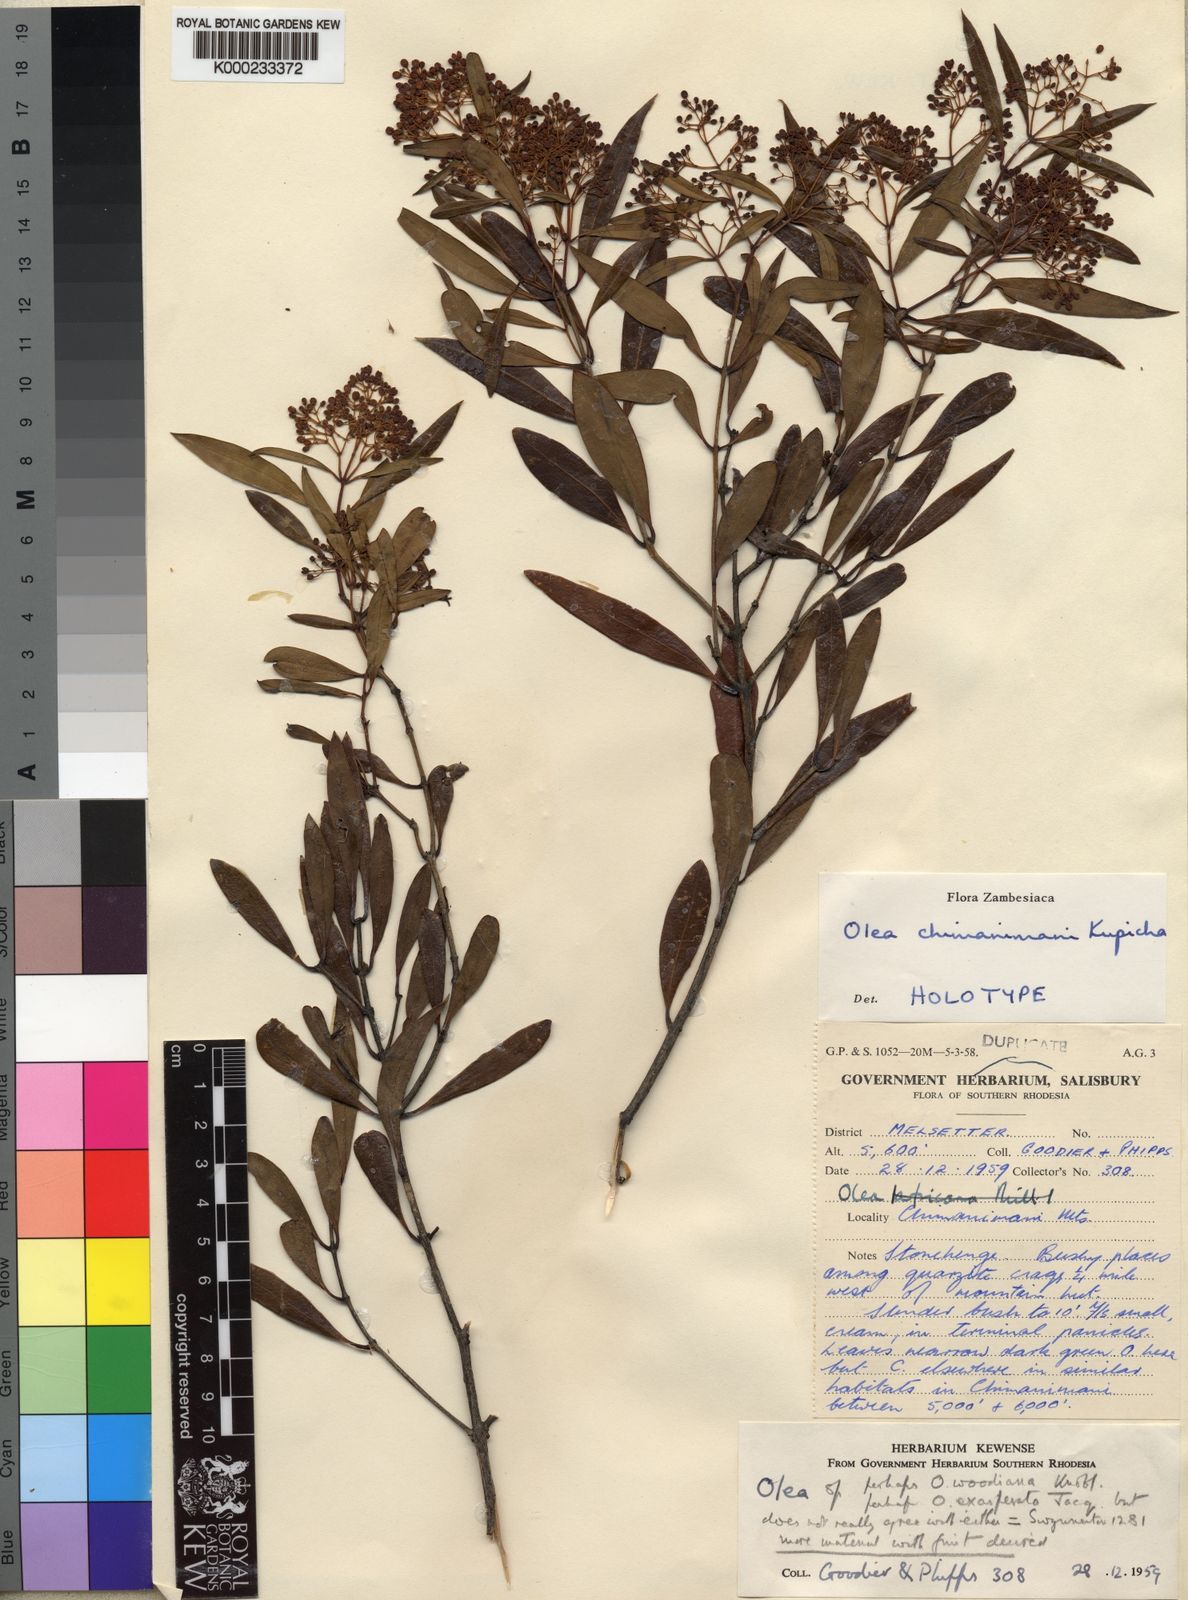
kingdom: Plantae
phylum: Tracheophyta
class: Magnoliopsida
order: Lamiales
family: Oleaceae
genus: Olea
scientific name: Olea chimanimani
